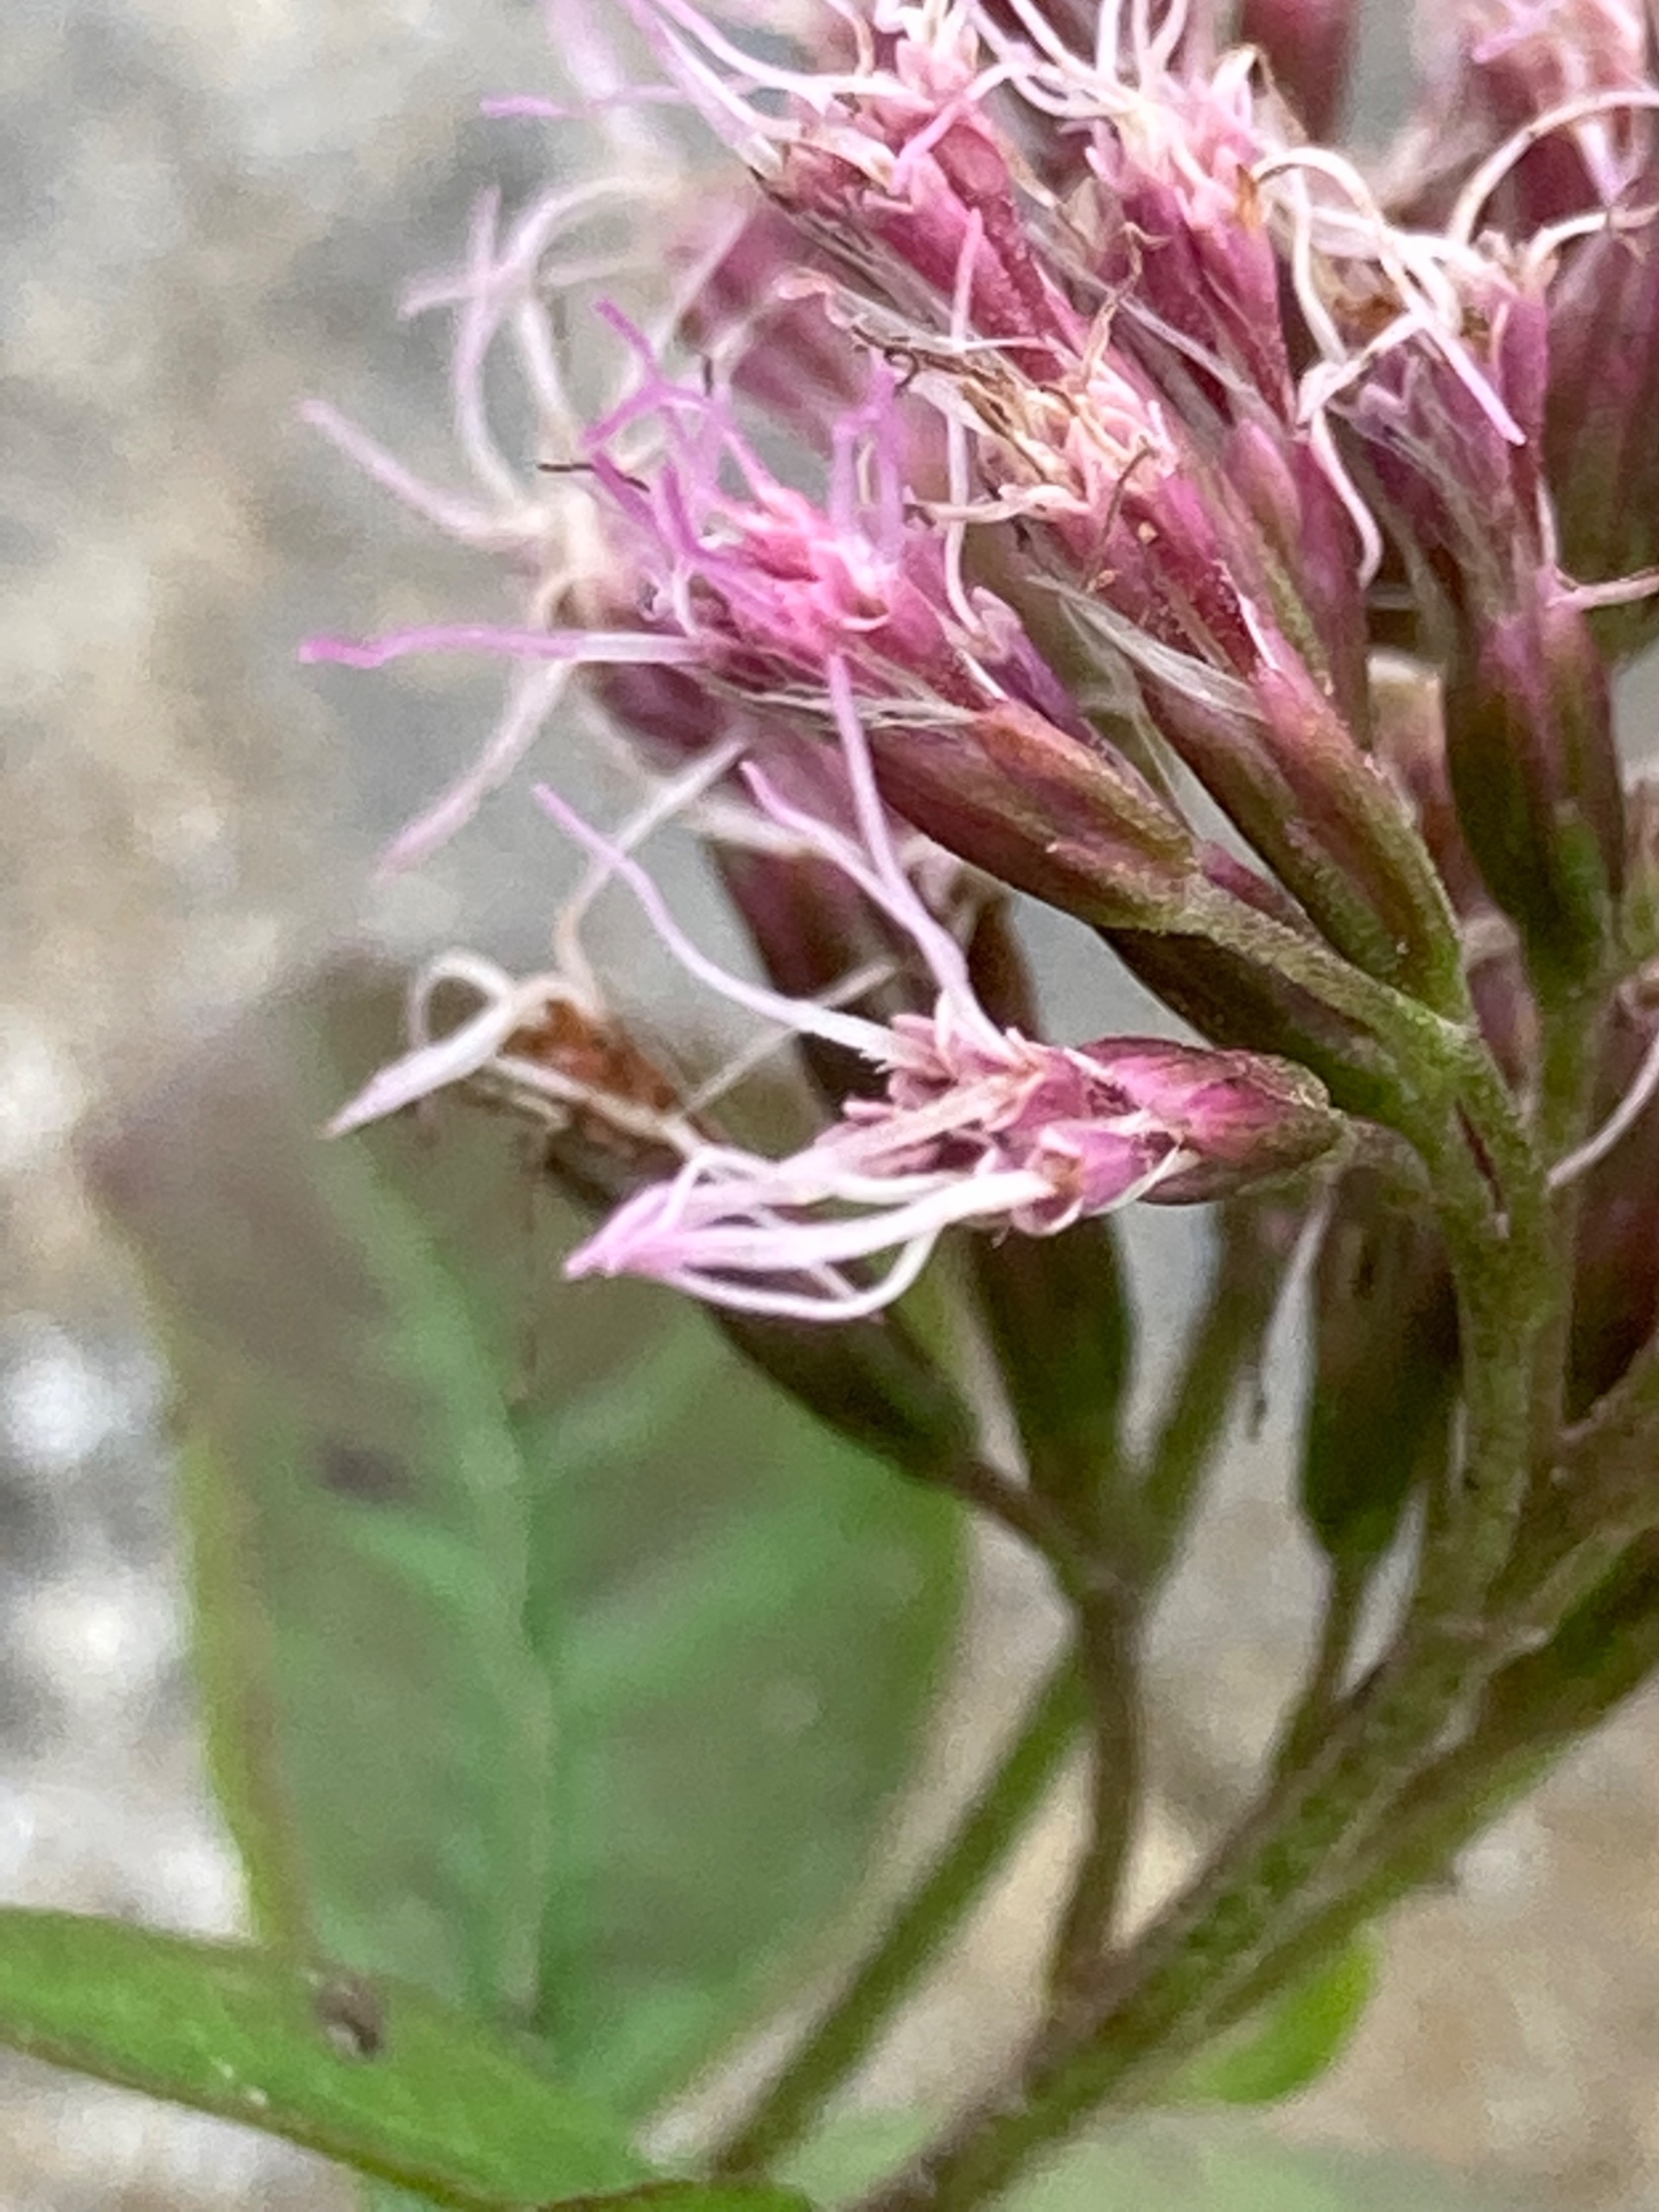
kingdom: Plantae
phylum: Tracheophyta
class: Magnoliopsida
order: Asterales
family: Asteraceae
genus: Eupatorium
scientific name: Eupatorium cannabinum
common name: Hjortetrøst
